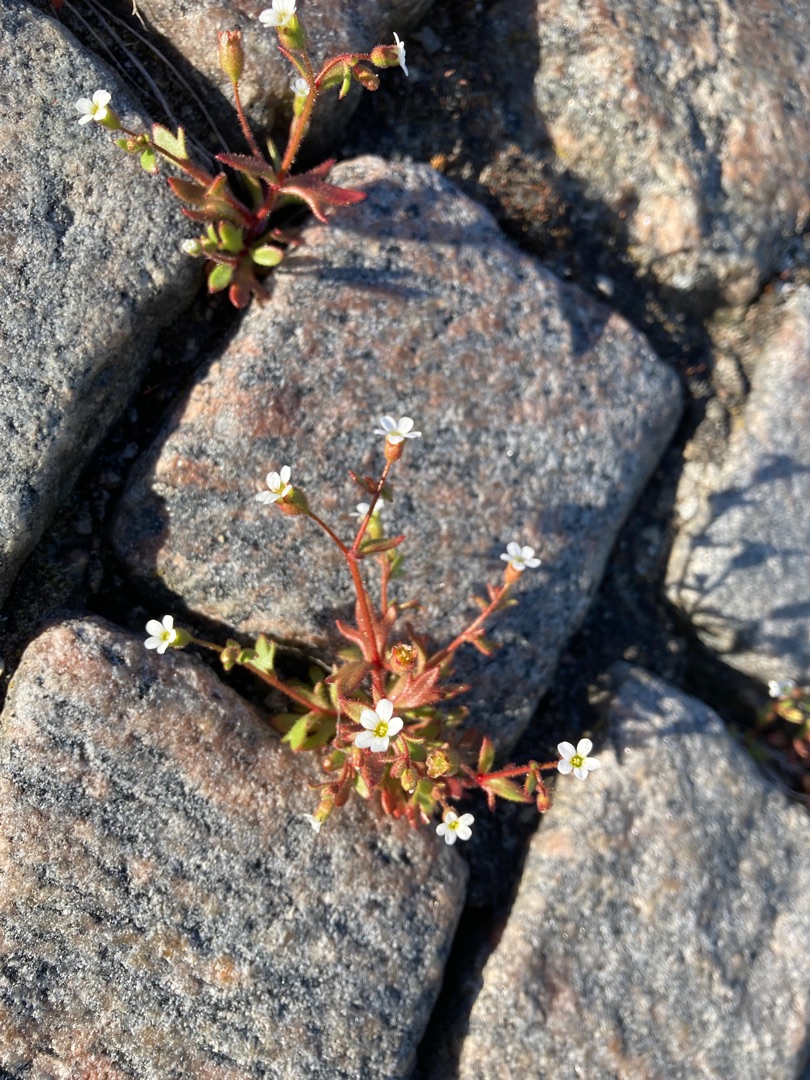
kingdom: Plantae
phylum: Tracheophyta
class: Magnoliopsida
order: Saxifragales
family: Saxifragaceae
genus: Saxifraga
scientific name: Saxifraga tridactylites
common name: Trekløft-stenbræk
